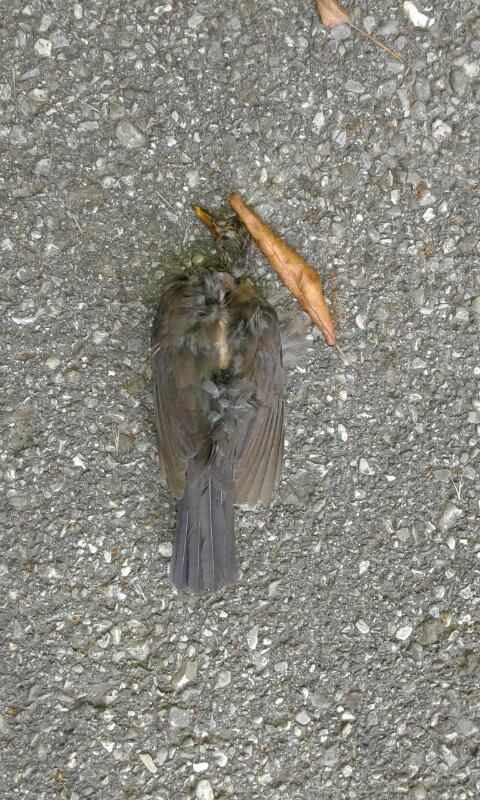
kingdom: Animalia
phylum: Chordata
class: Aves
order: Passeriformes
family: Turdidae
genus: Turdus
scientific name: Turdus merula
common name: Common blackbird
